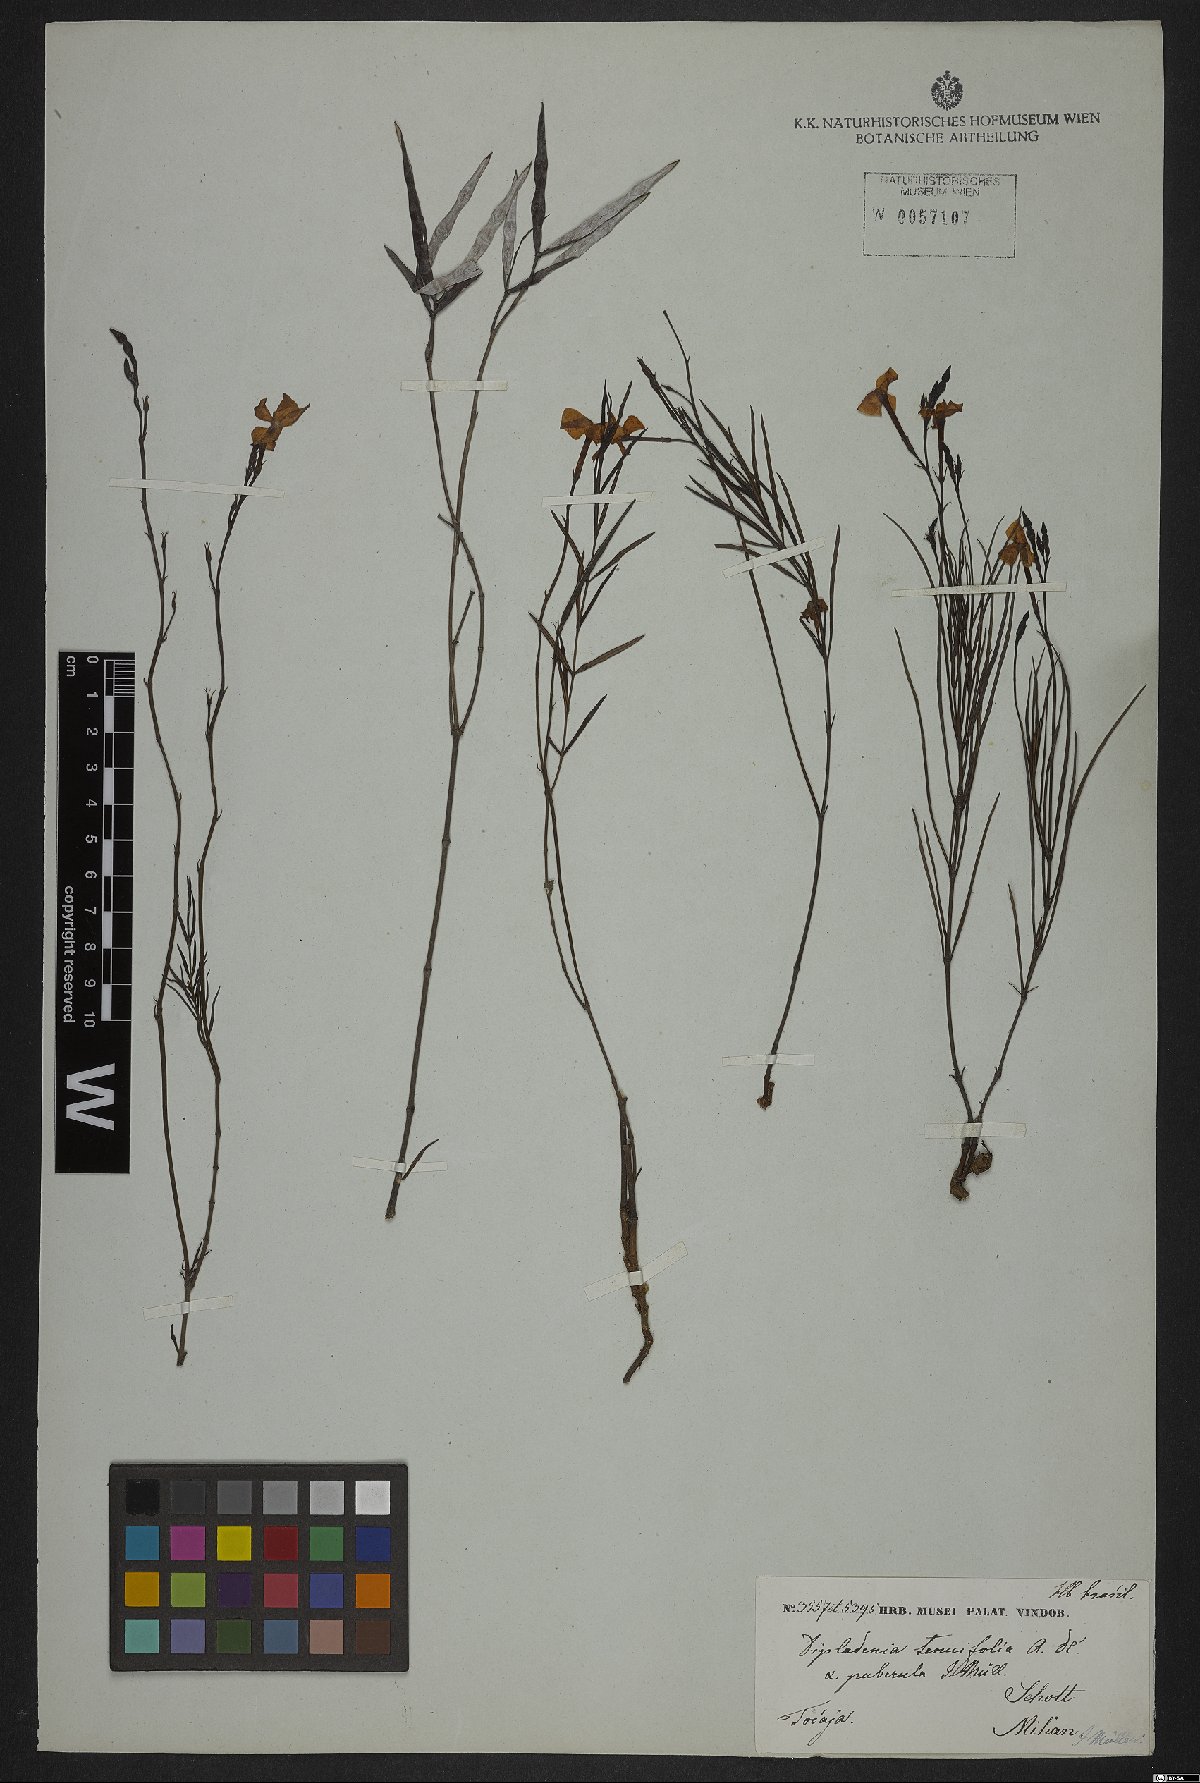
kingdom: Plantae
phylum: Tracheophyta
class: Magnoliopsida
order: Gentianales
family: Apocynaceae
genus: Mandevilla
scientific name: Mandevilla tenuifolia
